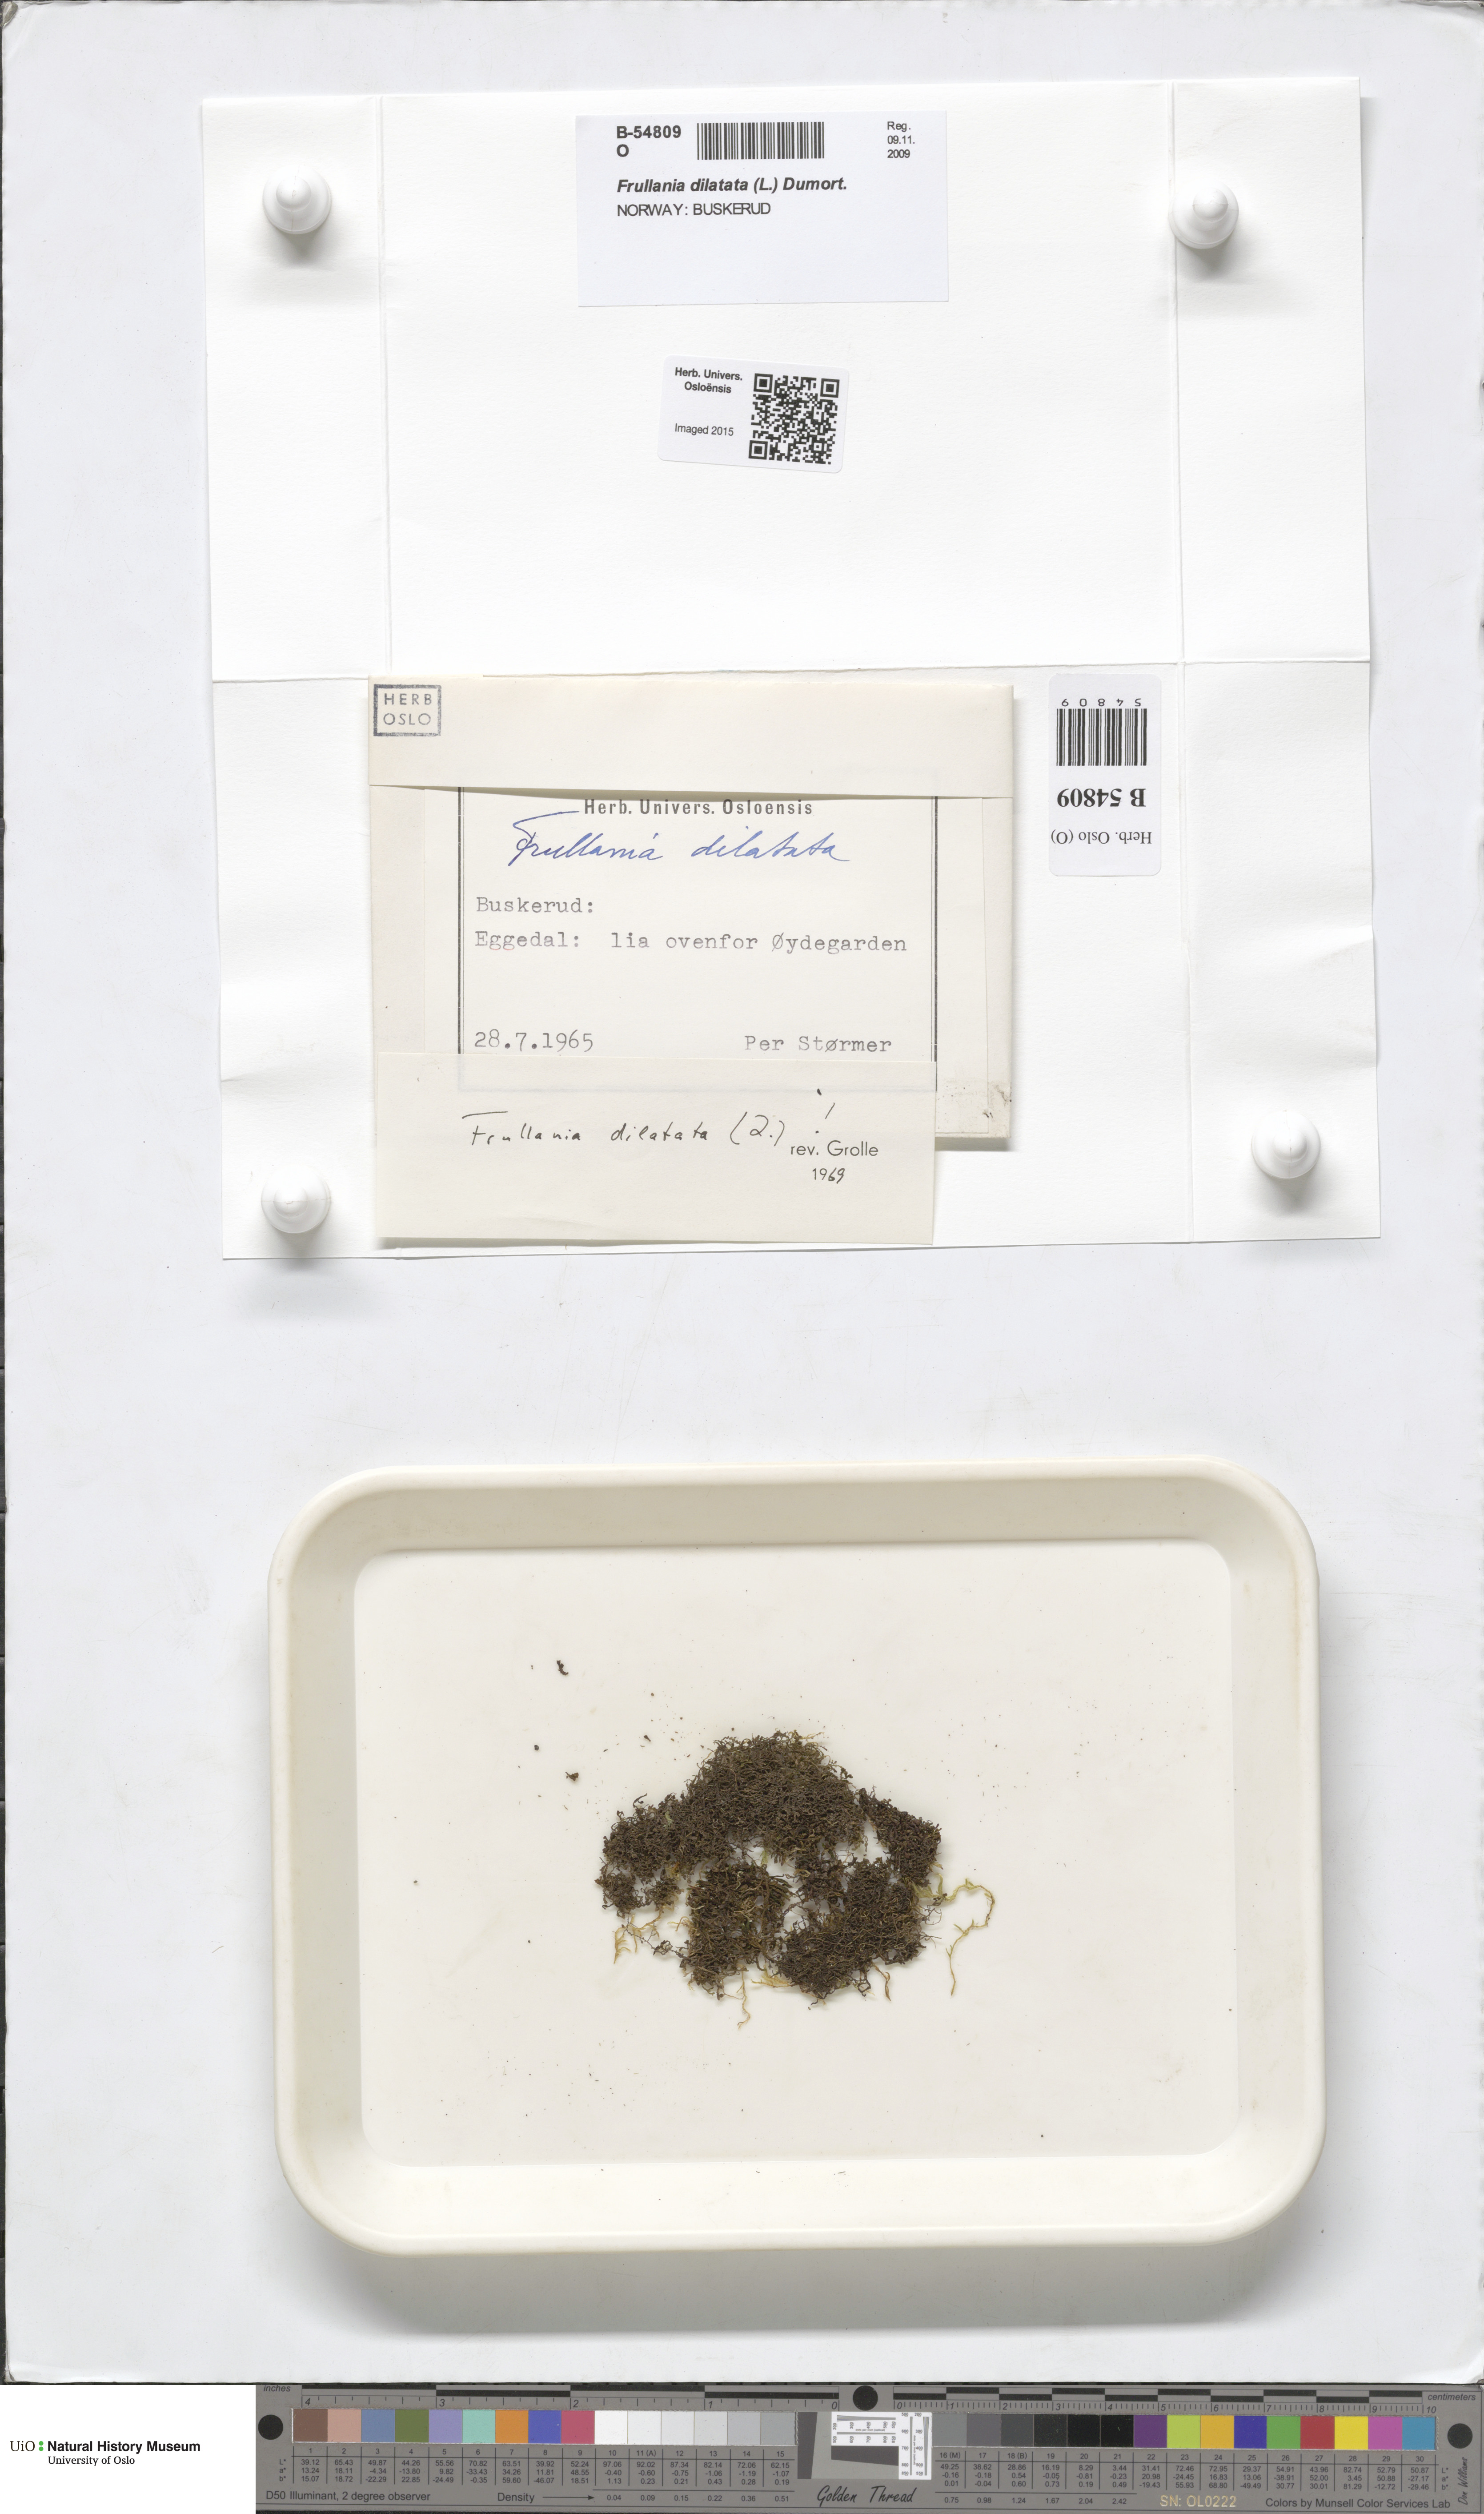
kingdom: Plantae
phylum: Marchantiophyta
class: Jungermanniopsida
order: Porellales
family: Frullaniaceae
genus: Frullania
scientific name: Frullania dilatata
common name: Dilated scalewort
